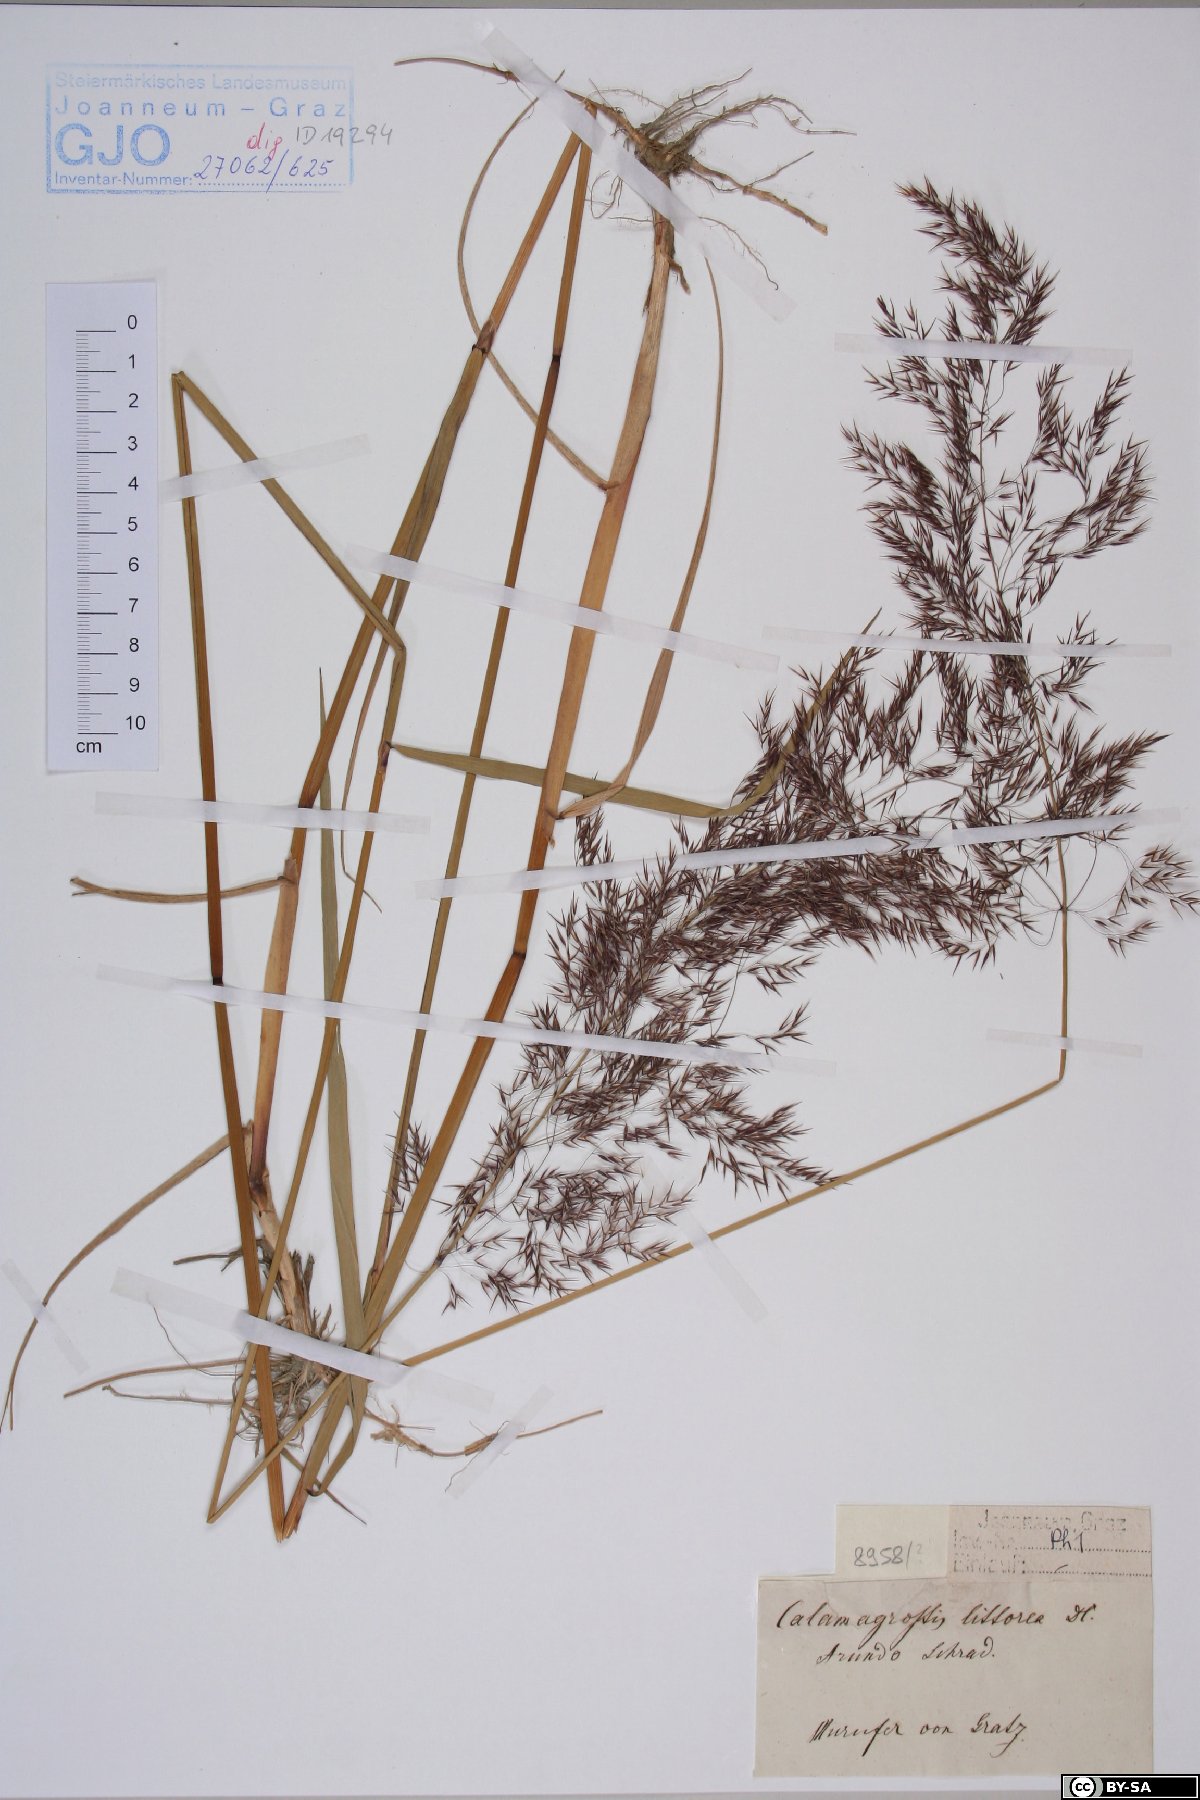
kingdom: Plantae
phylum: Tracheophyta
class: Liliopsida
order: Poales
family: Poaceae
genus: Calamagrostis
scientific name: Calamagrostis pseudophragmites
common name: Coastal small-reed
